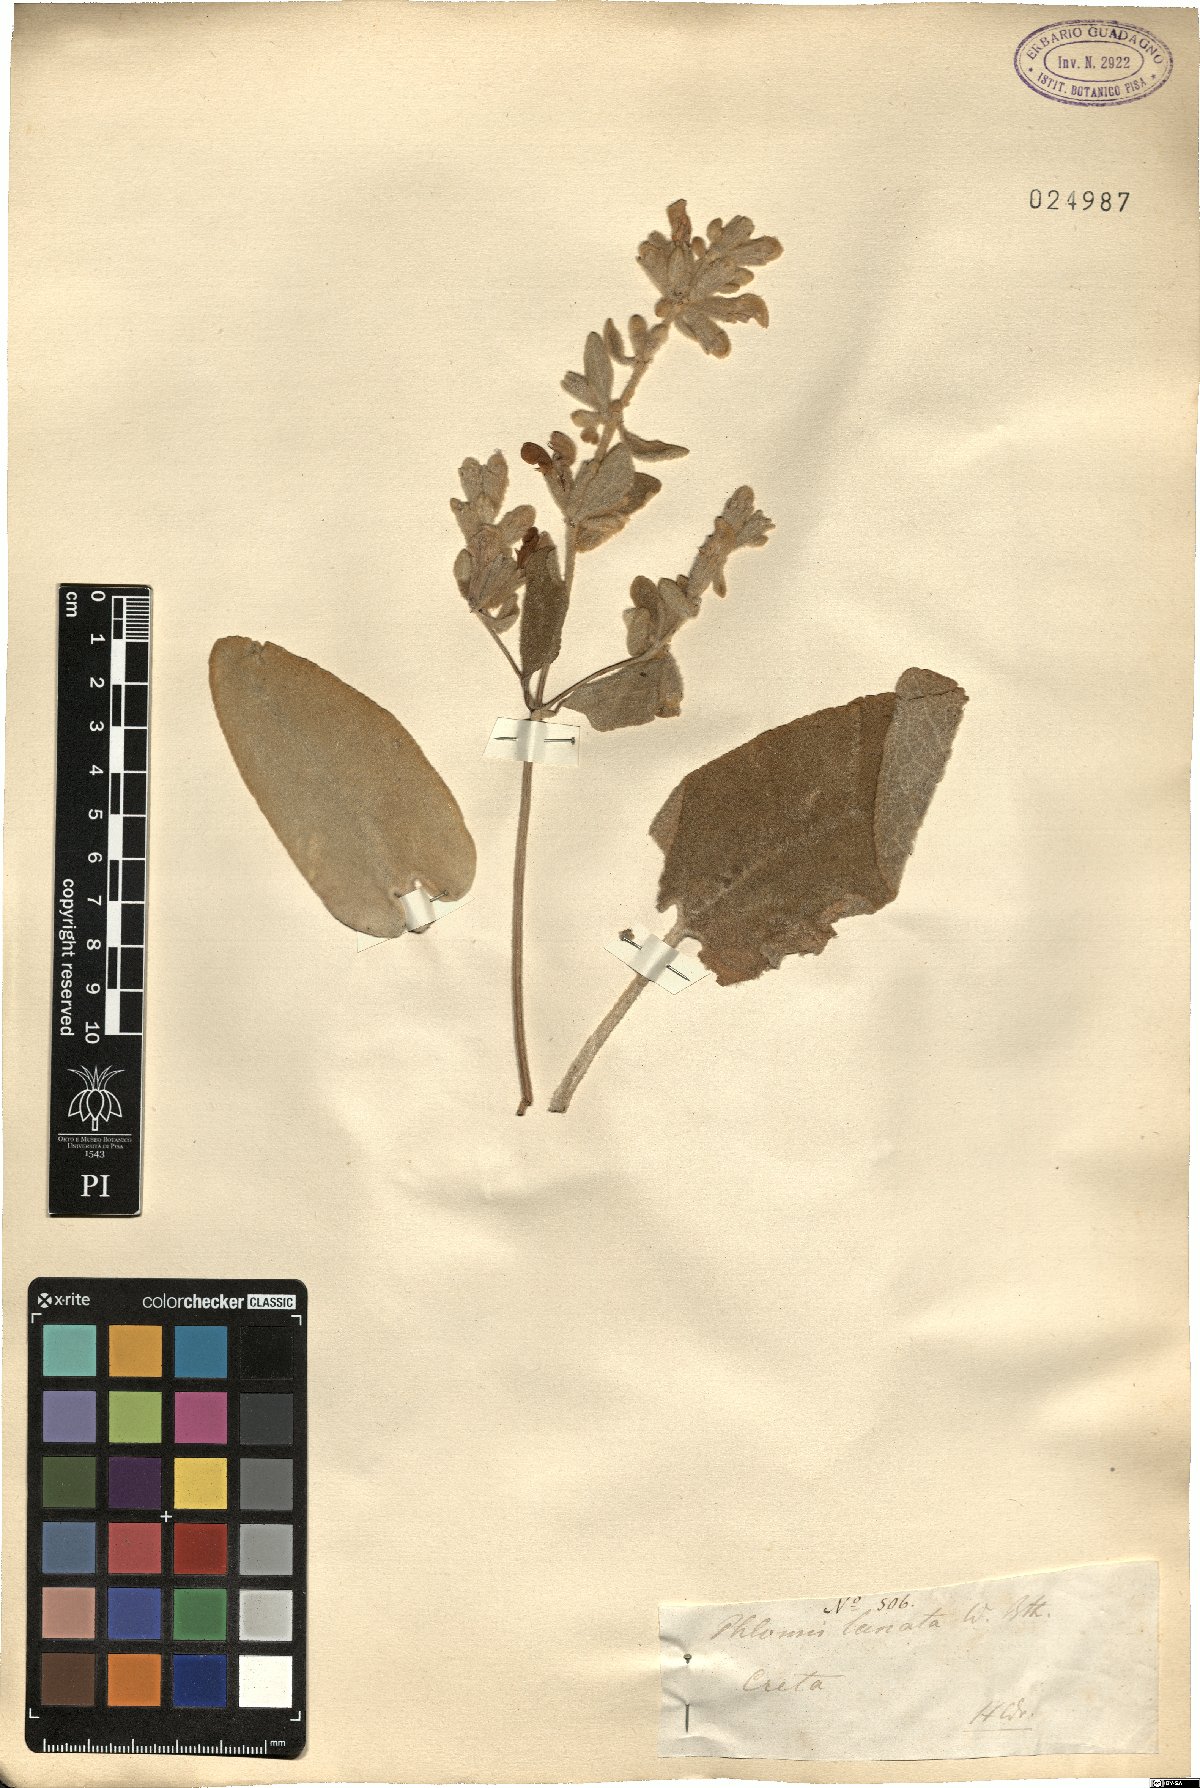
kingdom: Plantae
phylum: Tracheophyta
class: Magnoliopsida
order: Lamiales
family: Lamiaceae
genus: Phlomis
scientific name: Phlomis lanata
